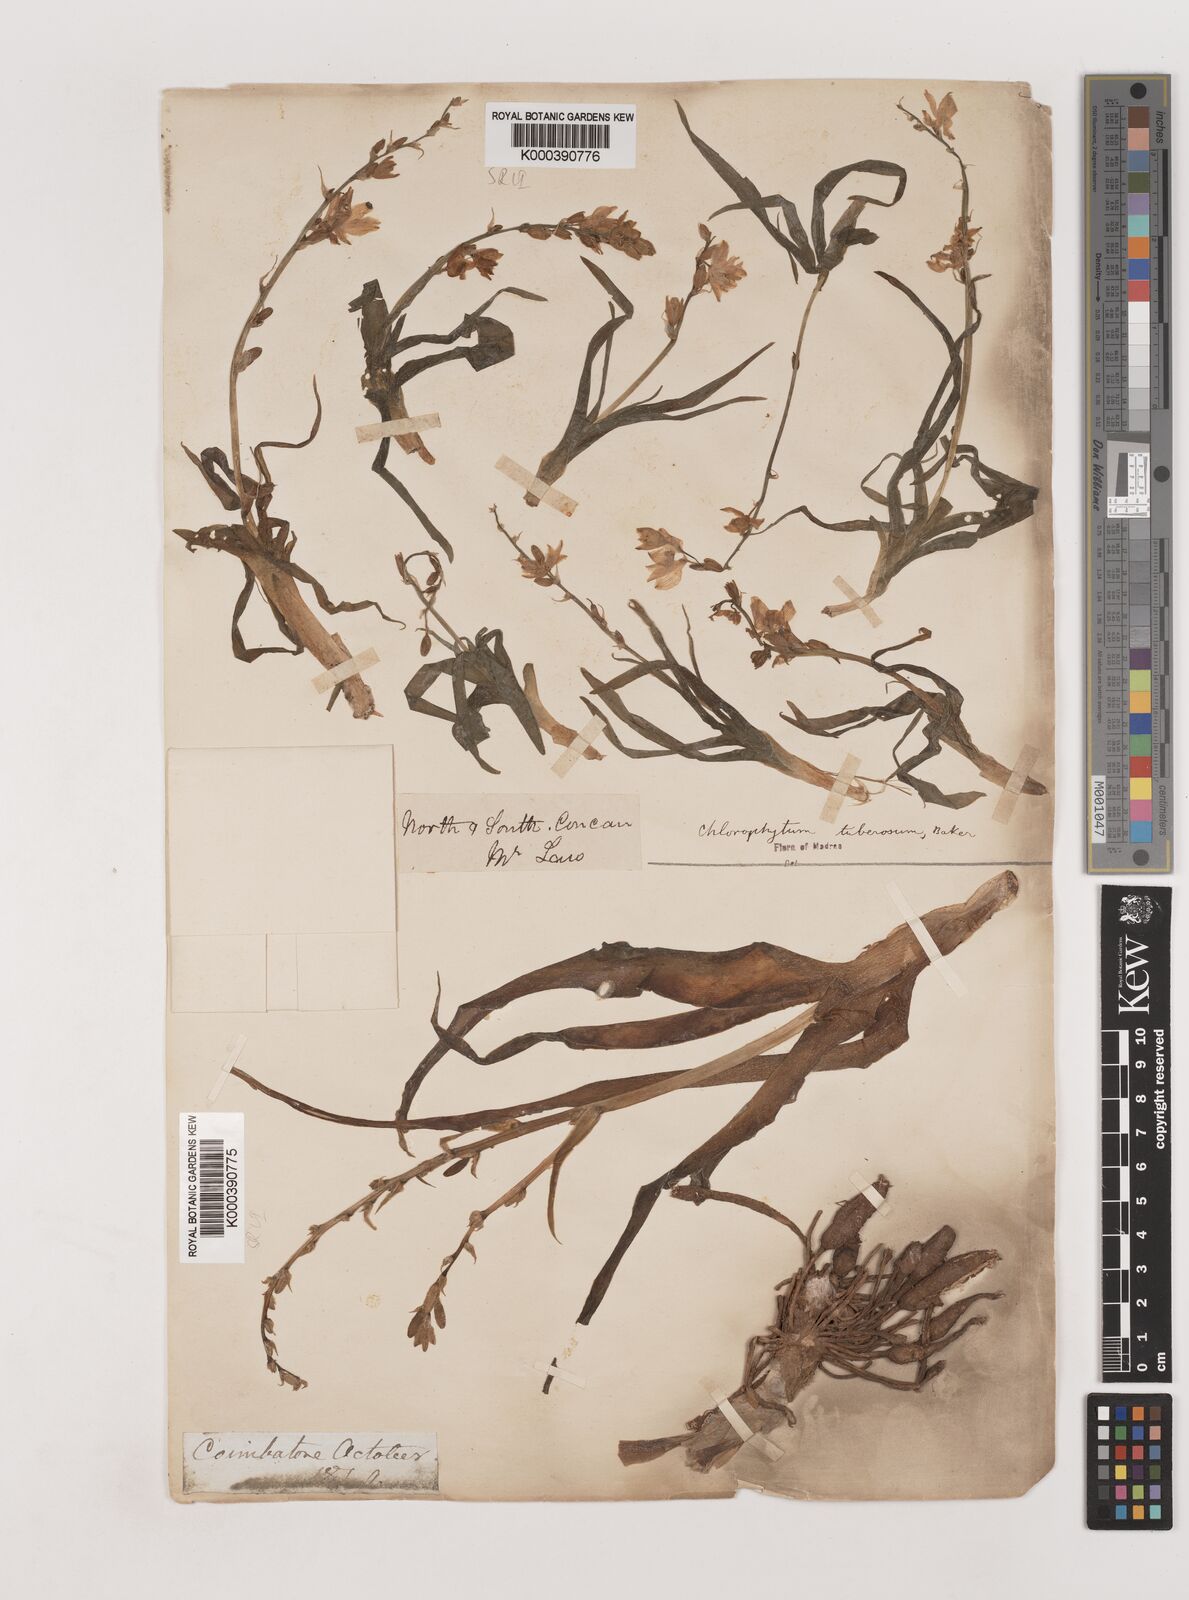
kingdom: Plantae
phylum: Tracheophyta
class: Liliopsida
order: Asparagales
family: Asparagaceae
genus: Chlorophytum
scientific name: Chlorophytum tuberosum
